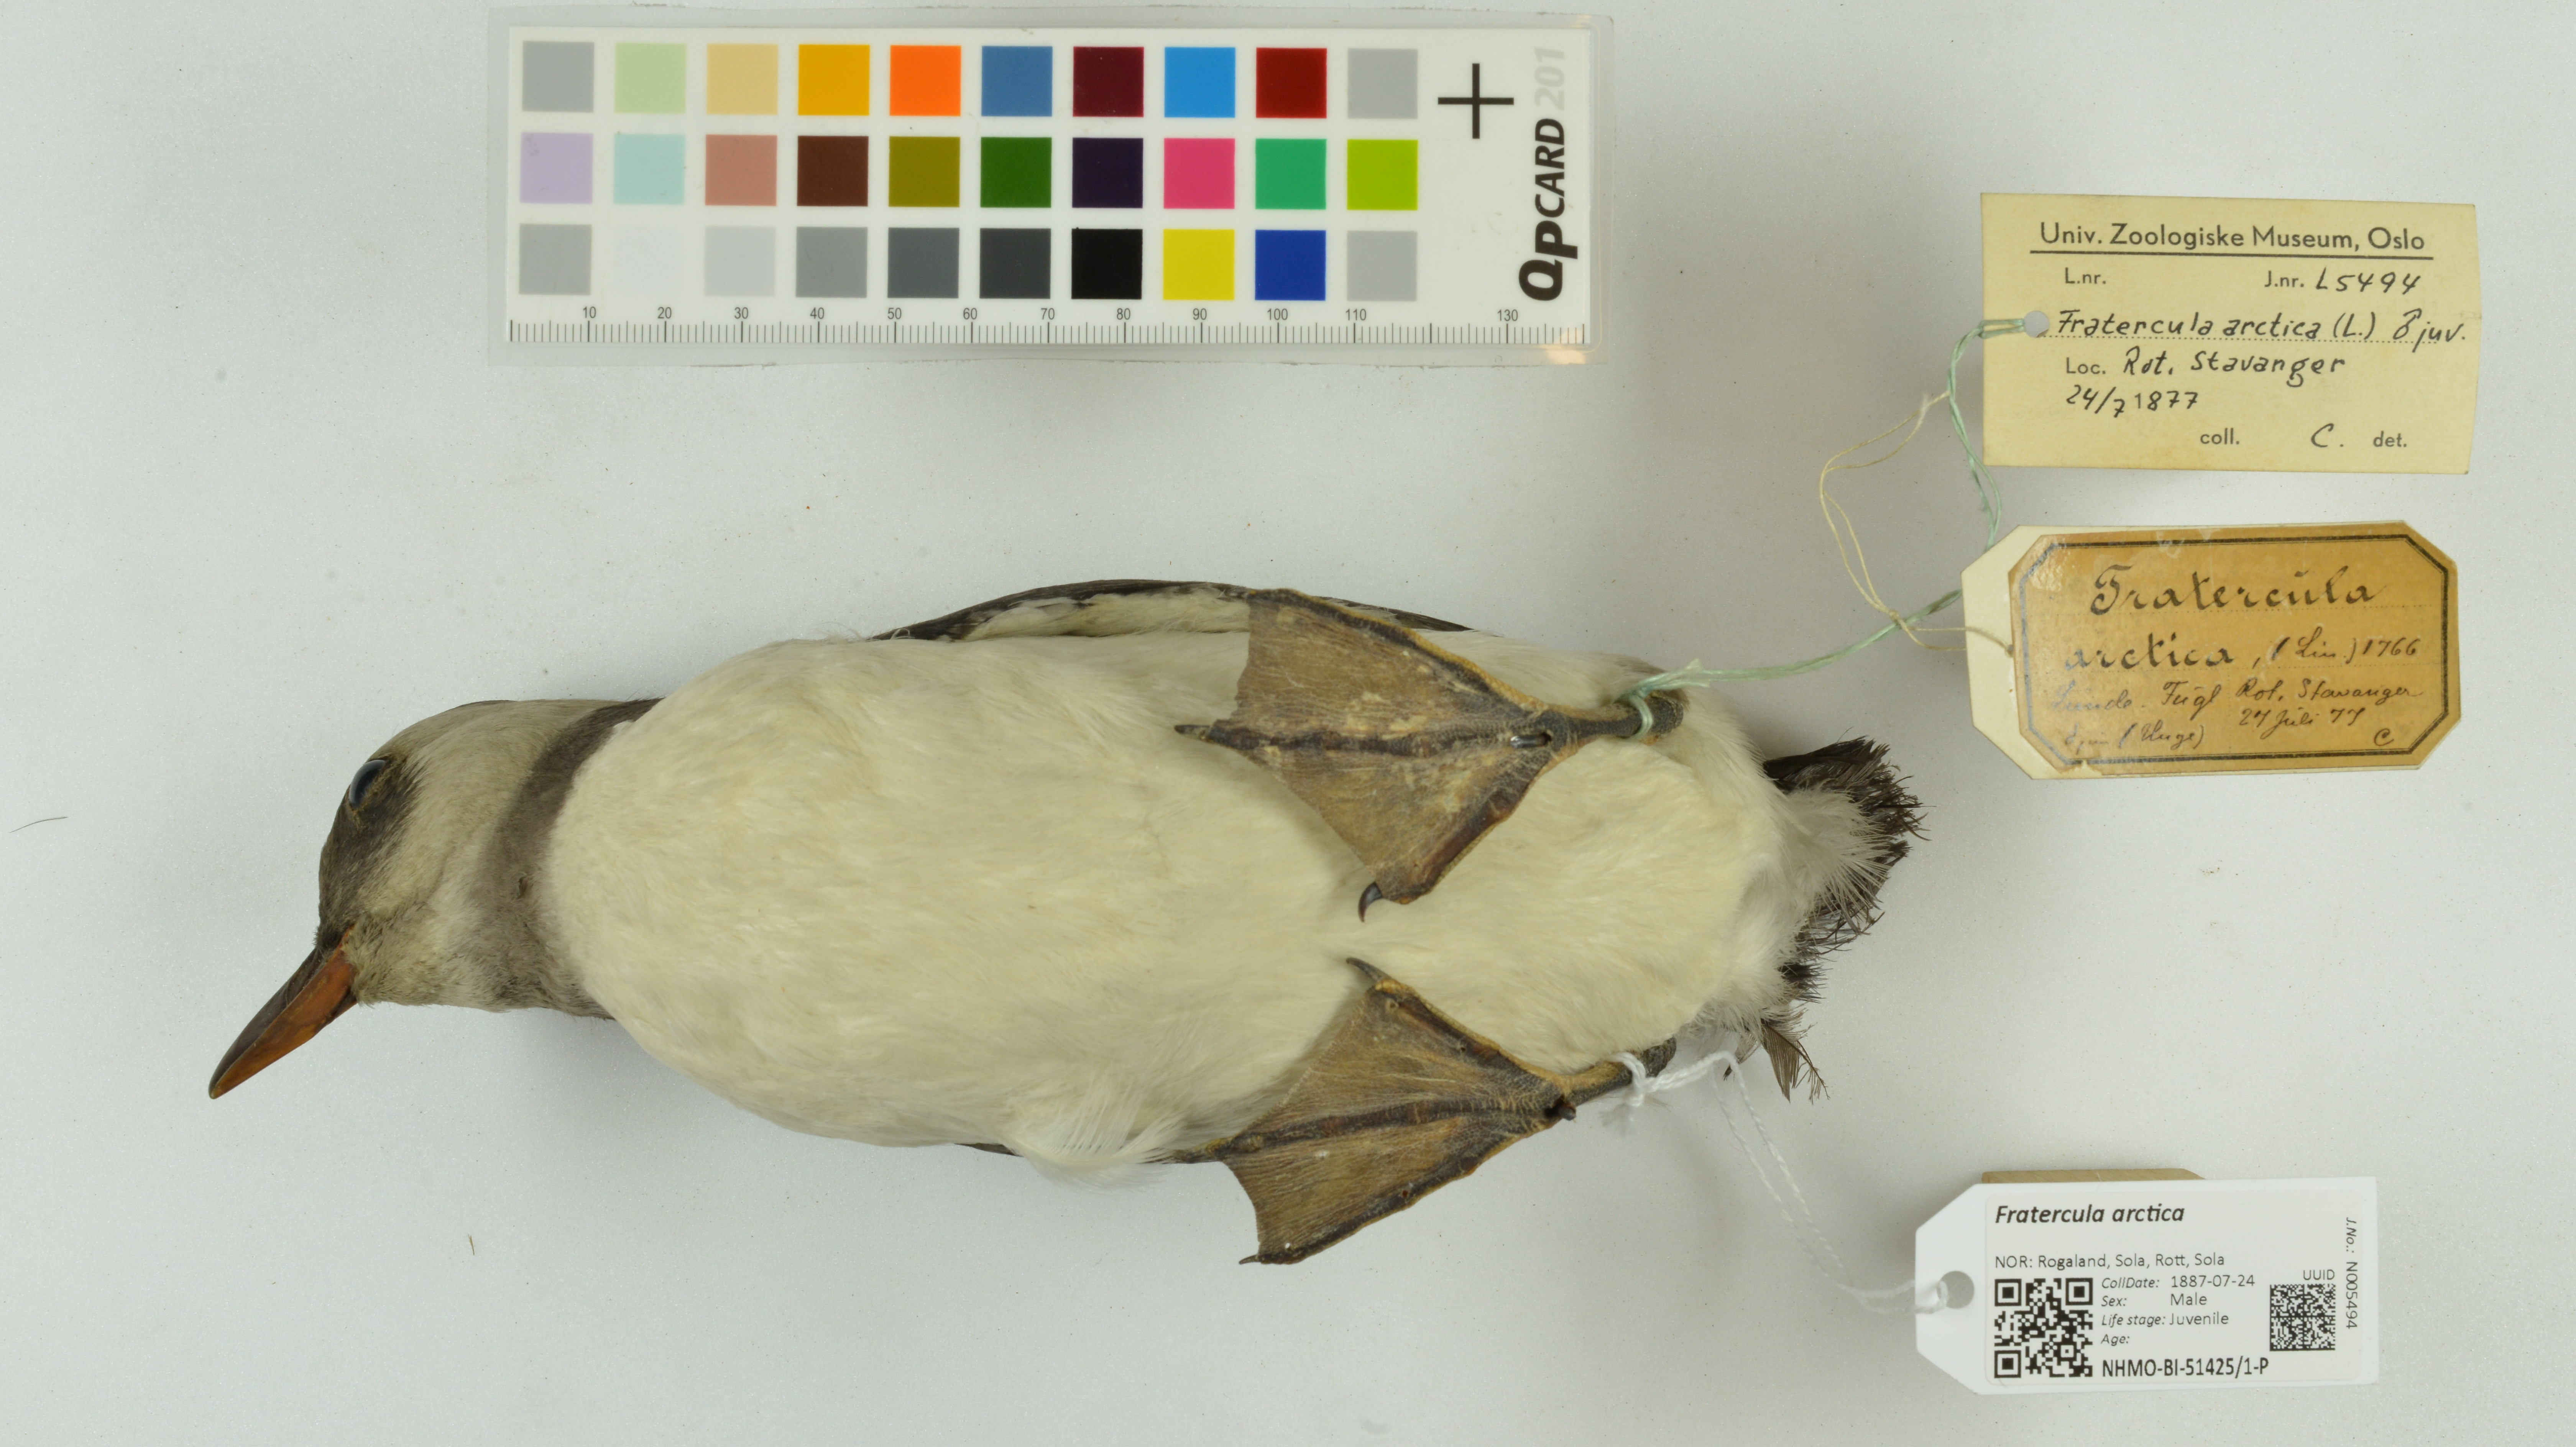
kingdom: Animalia
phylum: Chordata
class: Aves
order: Charadriiformes
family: Alcidae
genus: Fratercula
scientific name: Fratercula arctica
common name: Atlantic puffin
